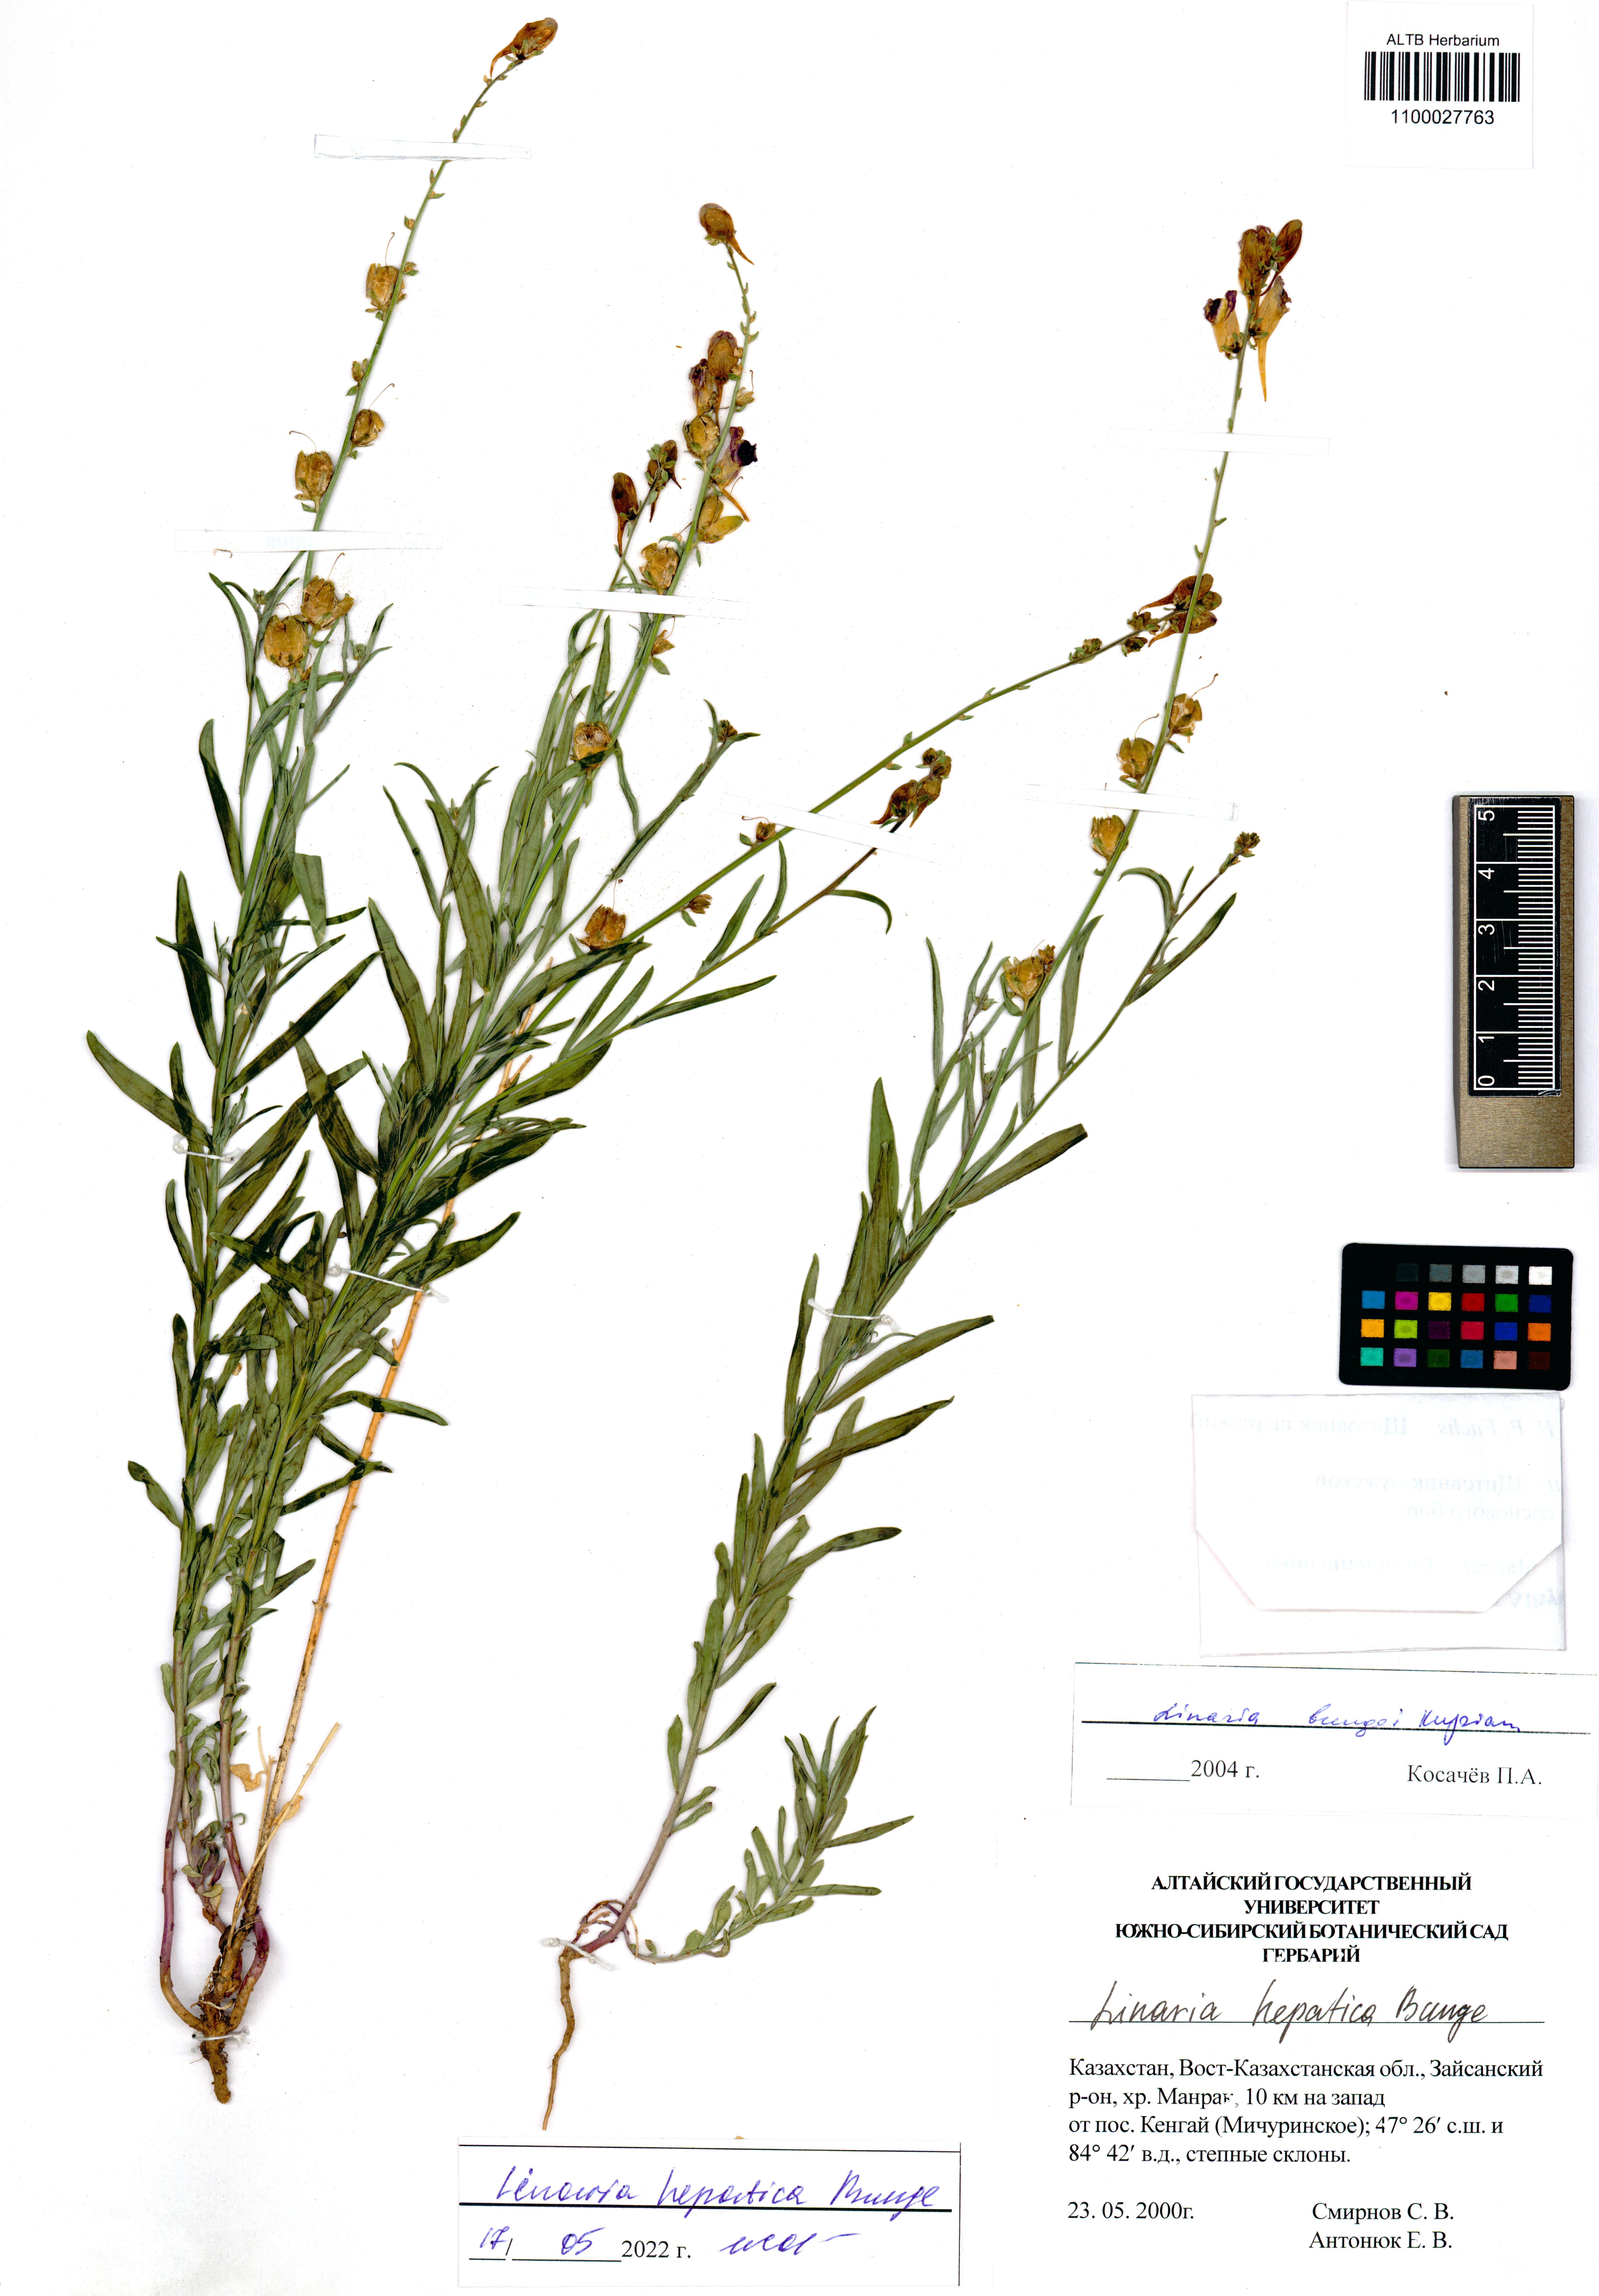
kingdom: Plantae
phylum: Tracheophyta
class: Magnoliopsida
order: Lamiales
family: Plantaginaceae
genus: Linaria
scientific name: Linaria hepatica
